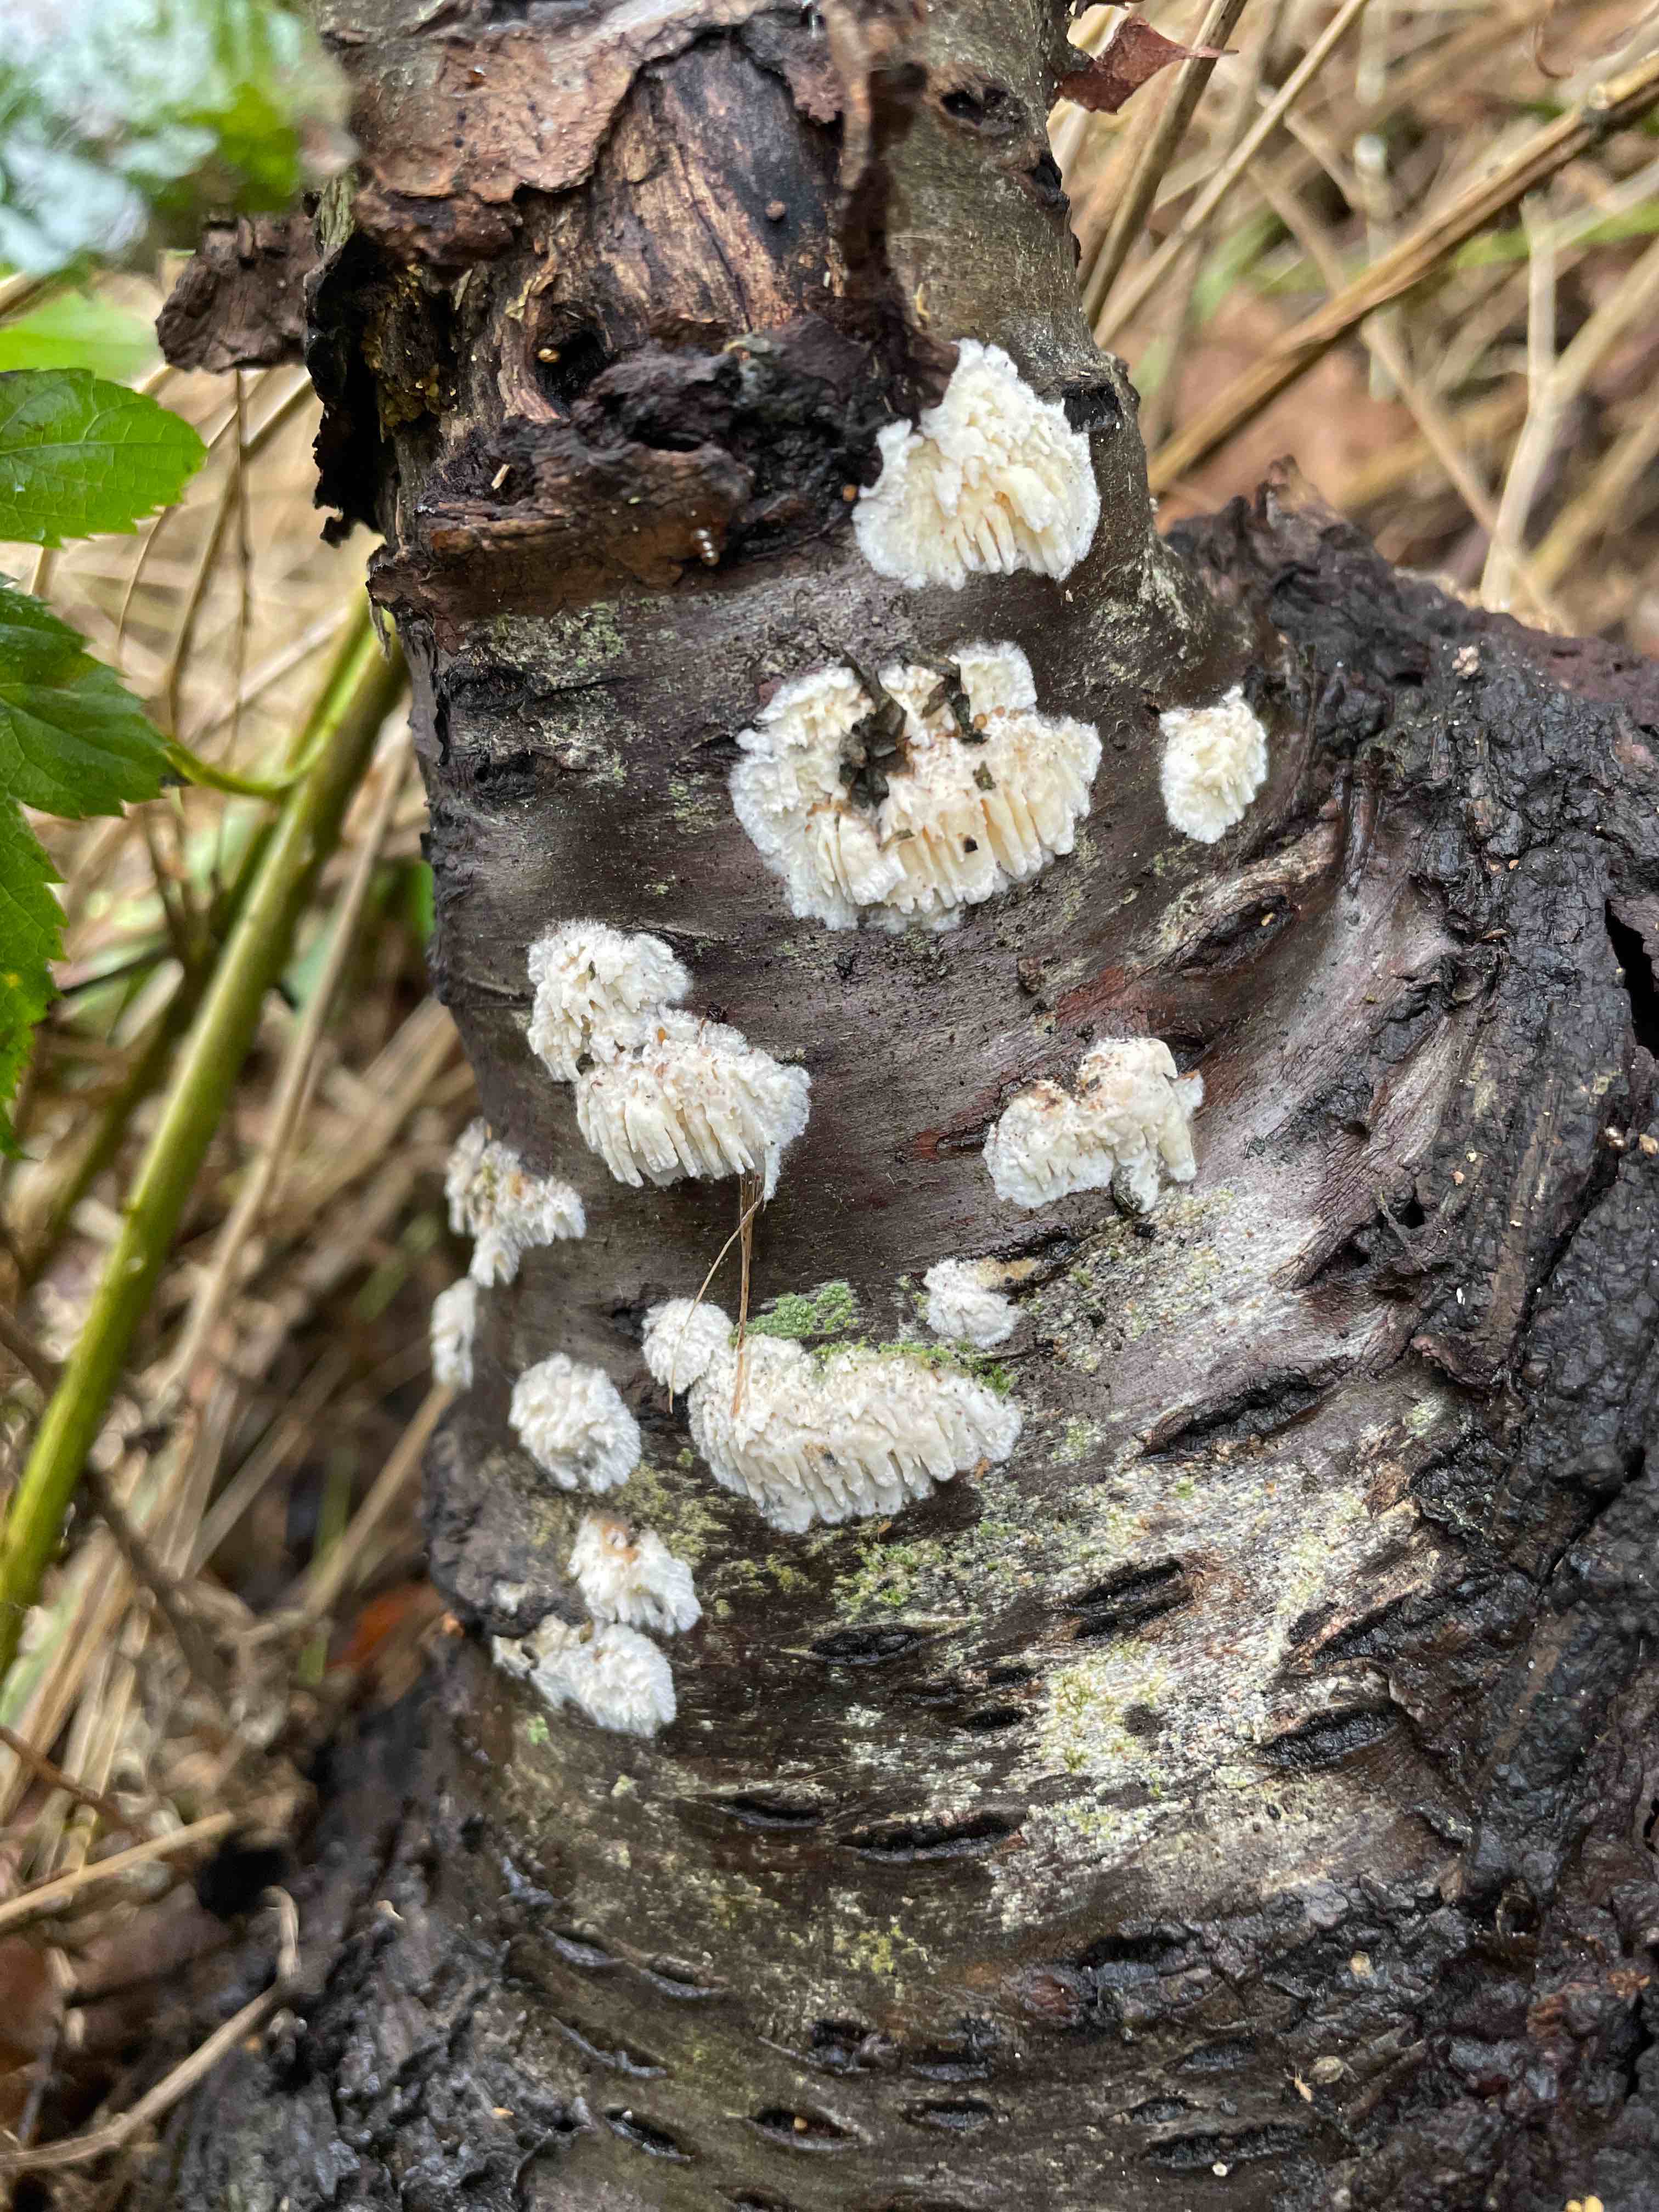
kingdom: Fungi
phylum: Basidiomycota
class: Agaricomycetes
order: Hymenochaetales
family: Schizoporaceae
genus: Xylodon
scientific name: Xylodon radula
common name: grovtandet kalkskind
